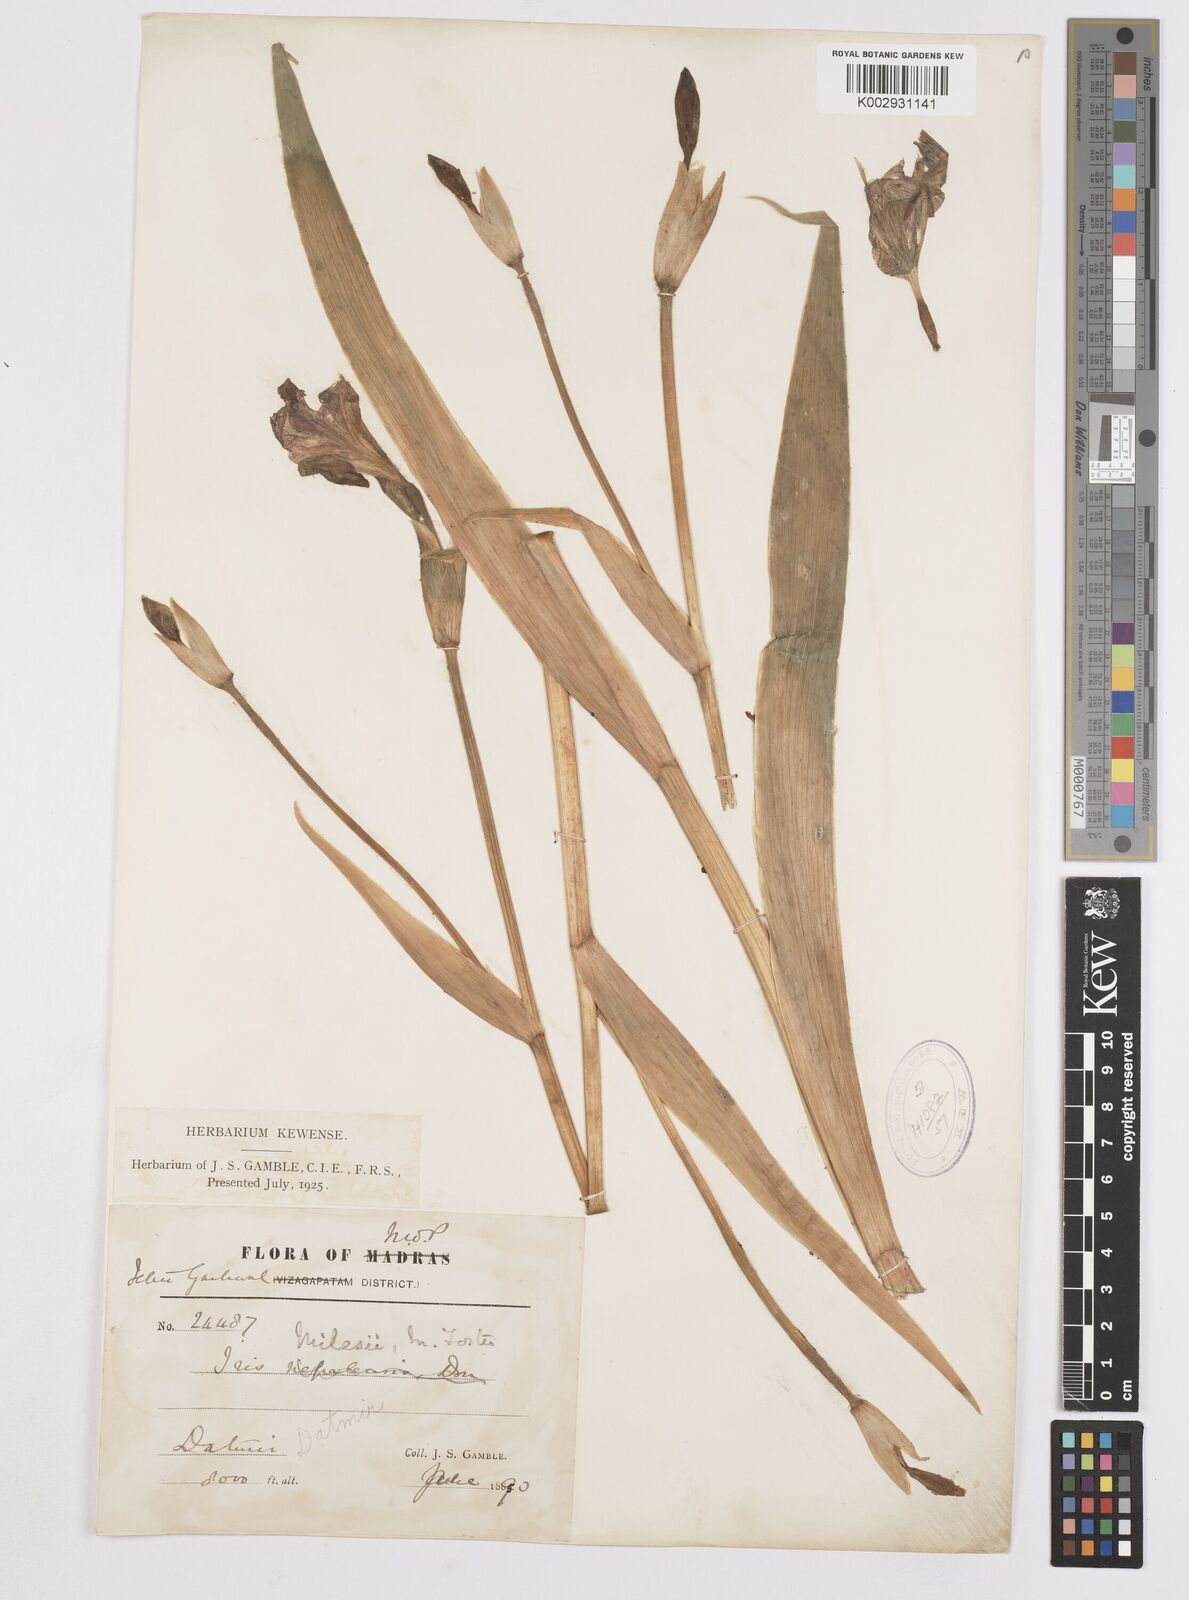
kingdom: Plantae
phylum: Tracheophyta
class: Liliopsida
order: Asparagales
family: Iridaceae
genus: Iris
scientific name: Iris milesii
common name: Red-flower iris
